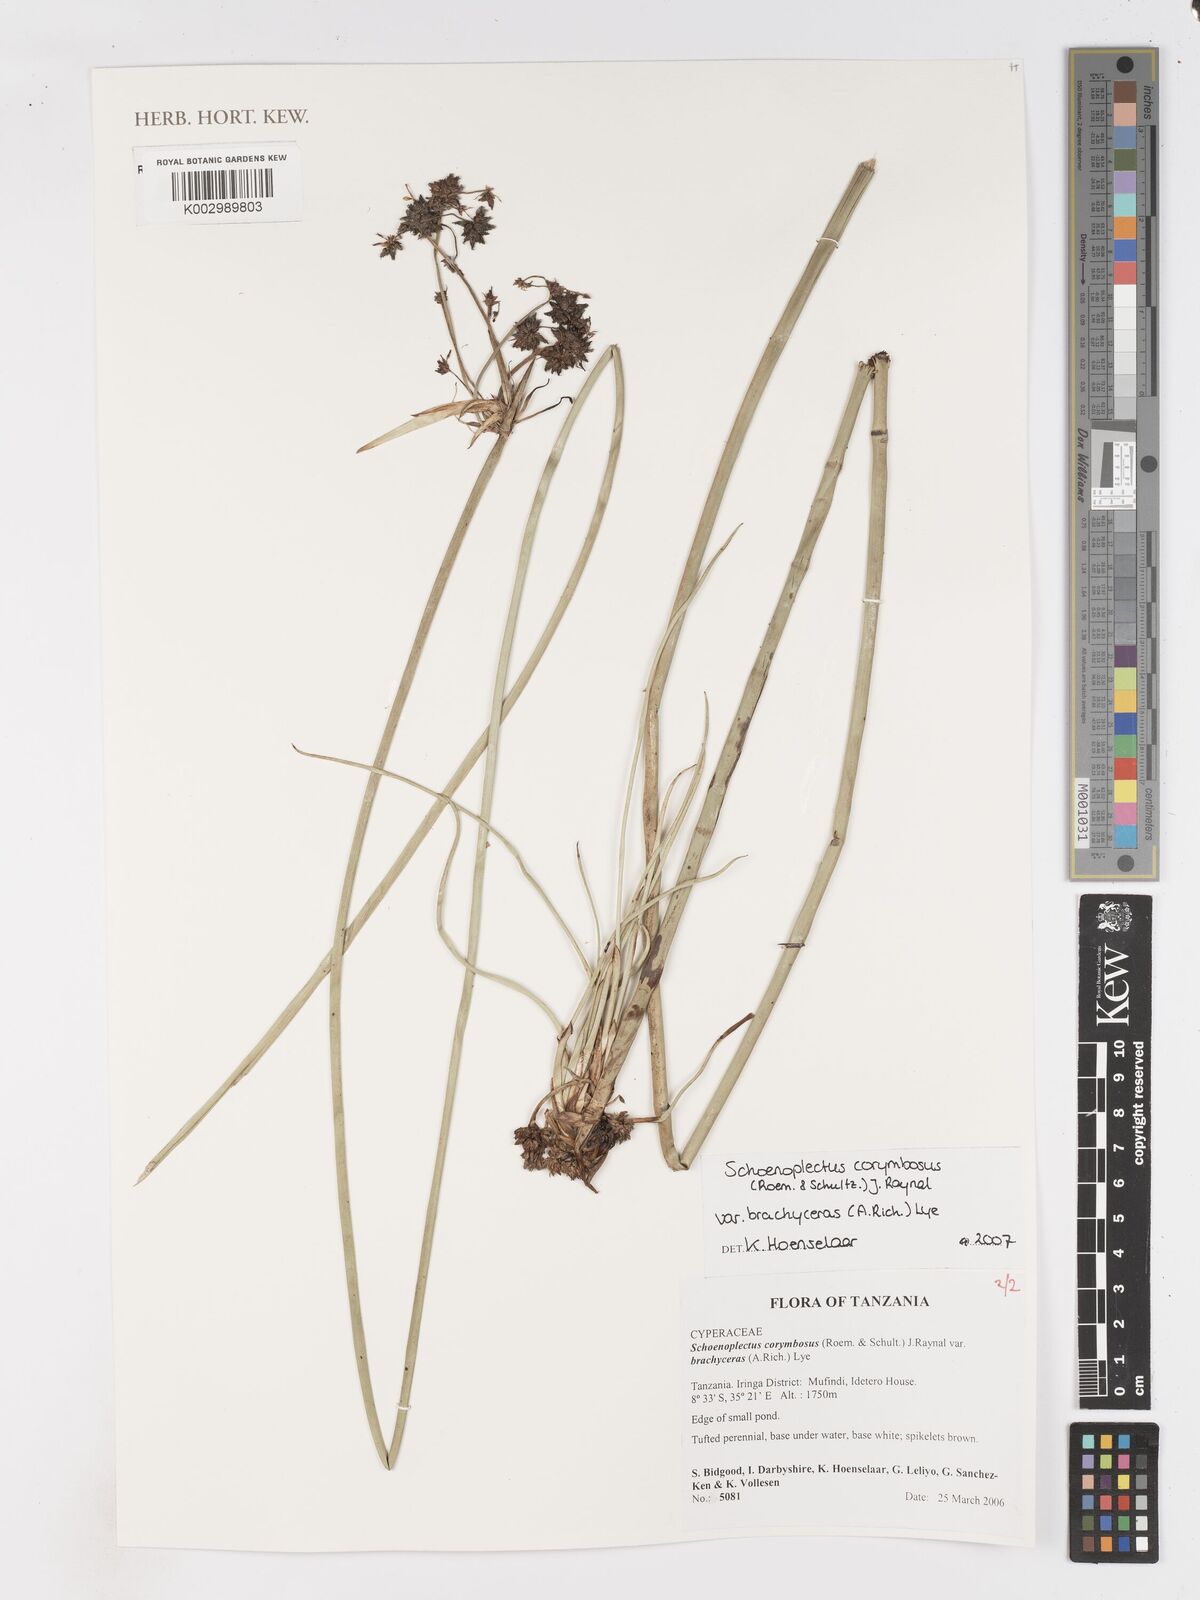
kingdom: Plantae
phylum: Tracheophyta
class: Liliopsida
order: Poales
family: Cyperaceae
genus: Schoenoplectiella
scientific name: Schoenoplectiella brachyceras
